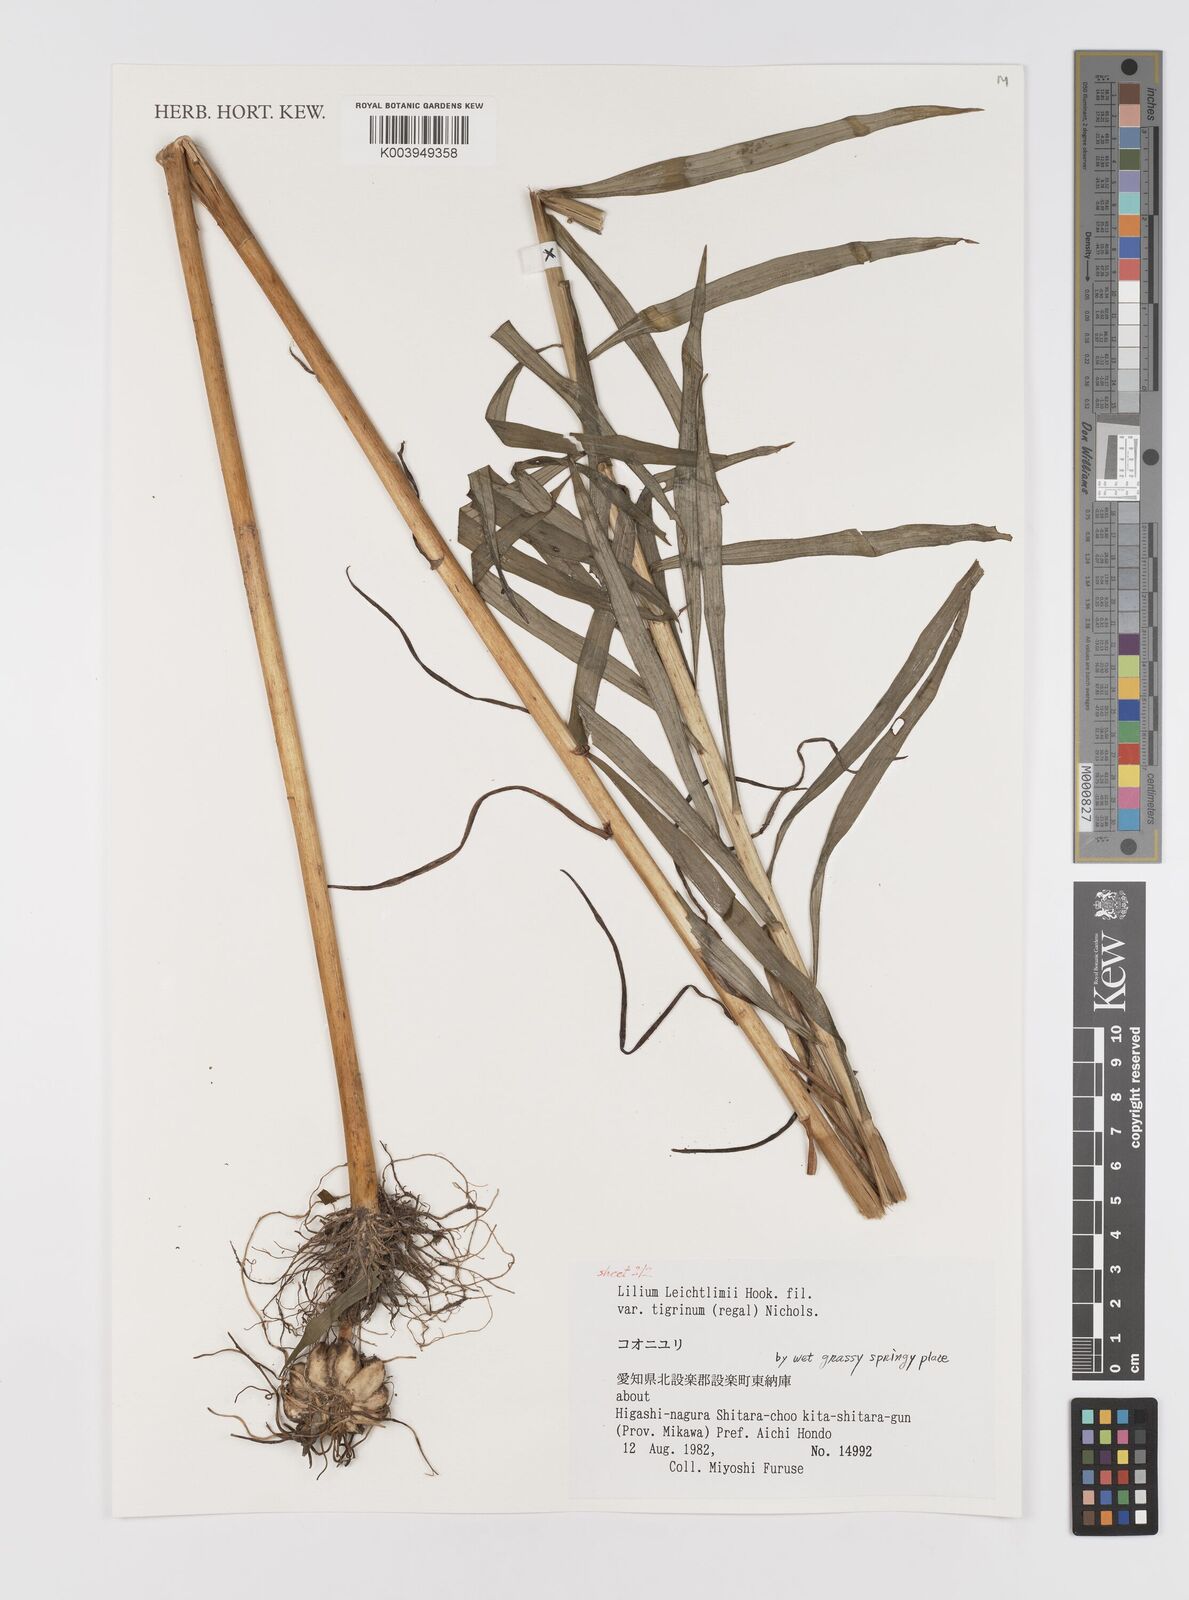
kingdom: Plantae
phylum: Tracheophyta
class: Liliopsida
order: Liliales
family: Liliaceae
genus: Lilium
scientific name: Lilium leichtlinii
